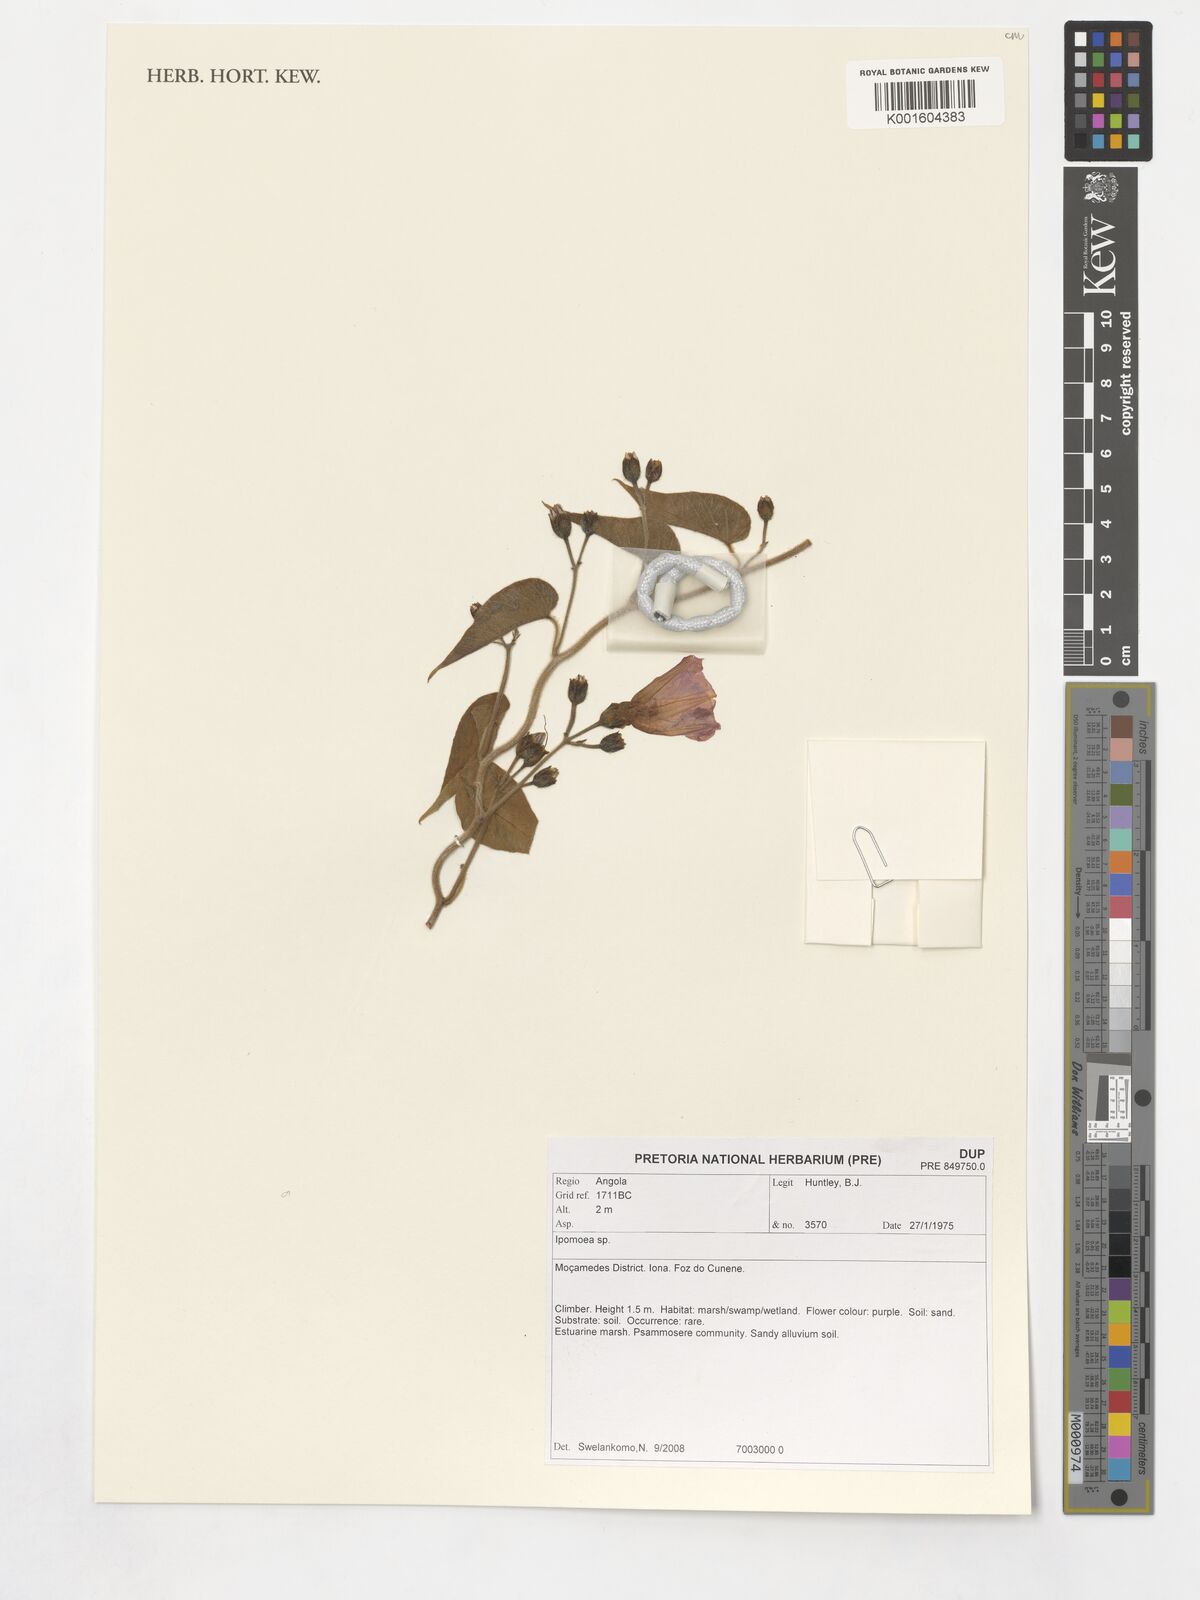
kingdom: Plantae
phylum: Tracheophyta
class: Magnoliopsida
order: Solanales
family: Convolvulaceae
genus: Ipomoea
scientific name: Ipomoea
